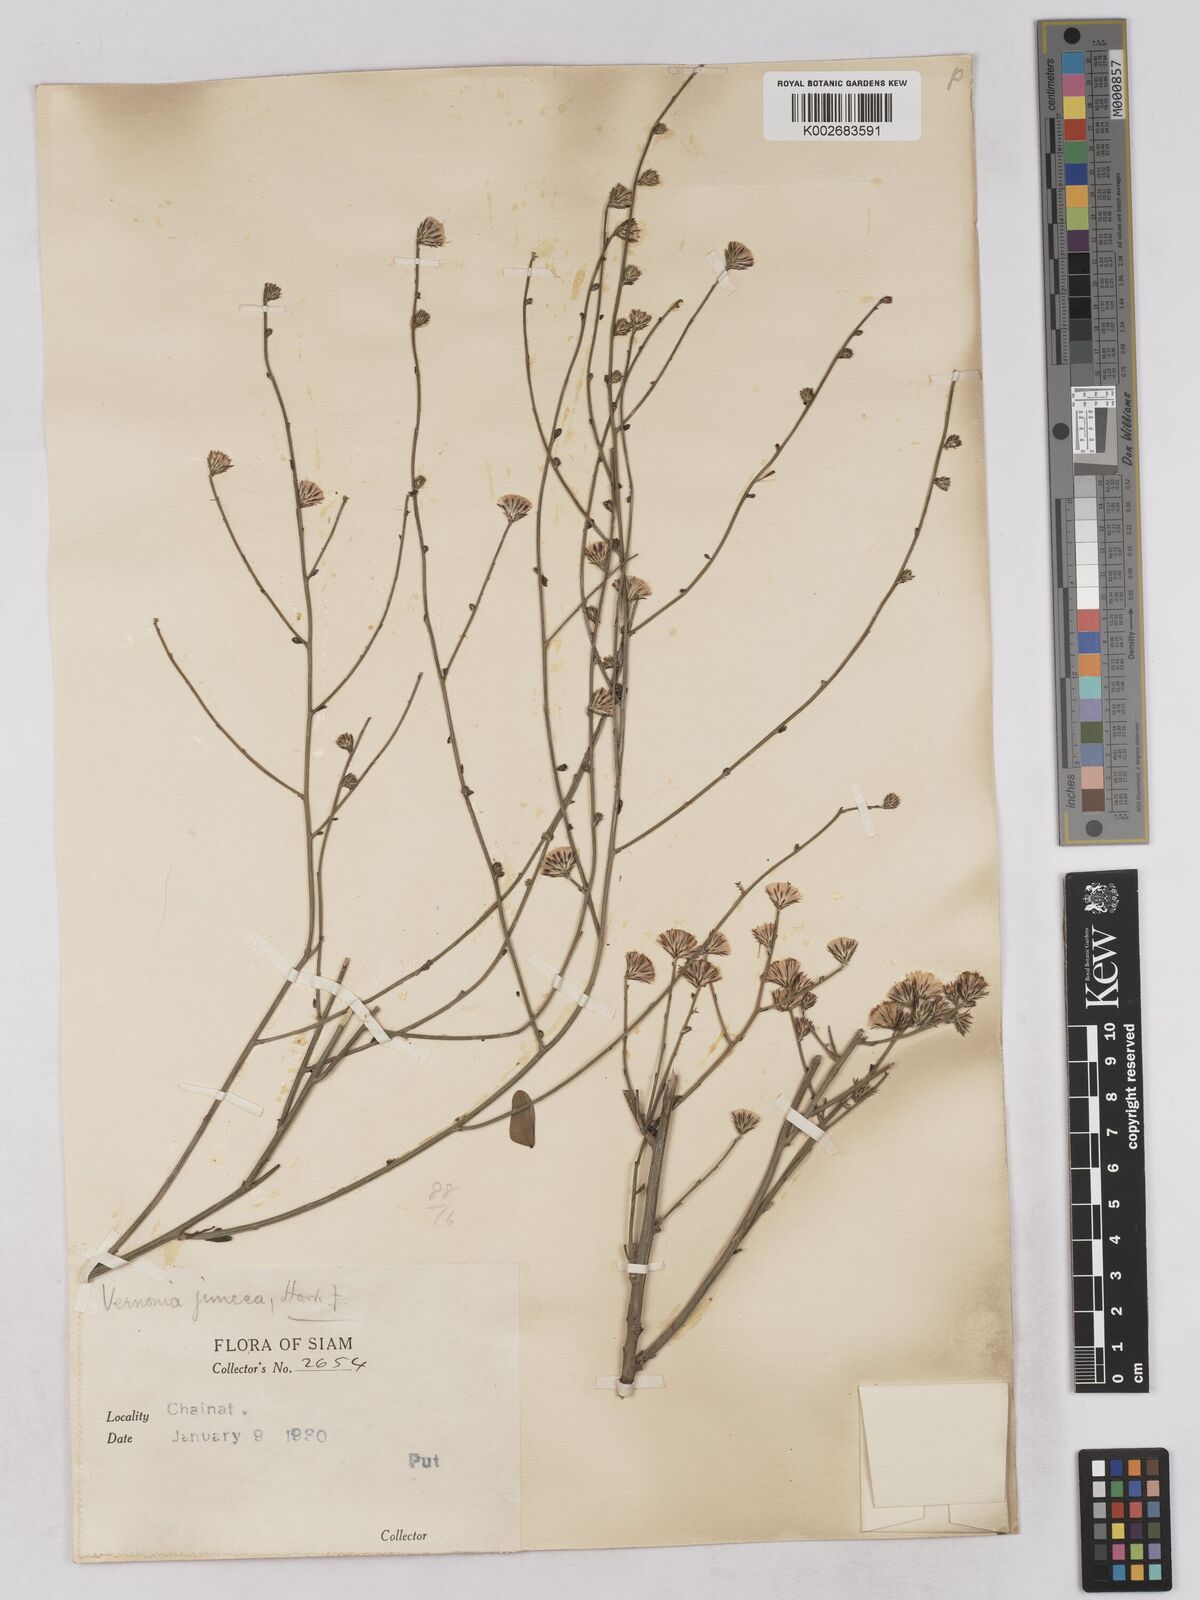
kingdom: Plantae
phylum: Tracheophyta
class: Magnoliopsida
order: Asterales
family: Asteraceae
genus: Vernonia
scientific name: Vernonia
